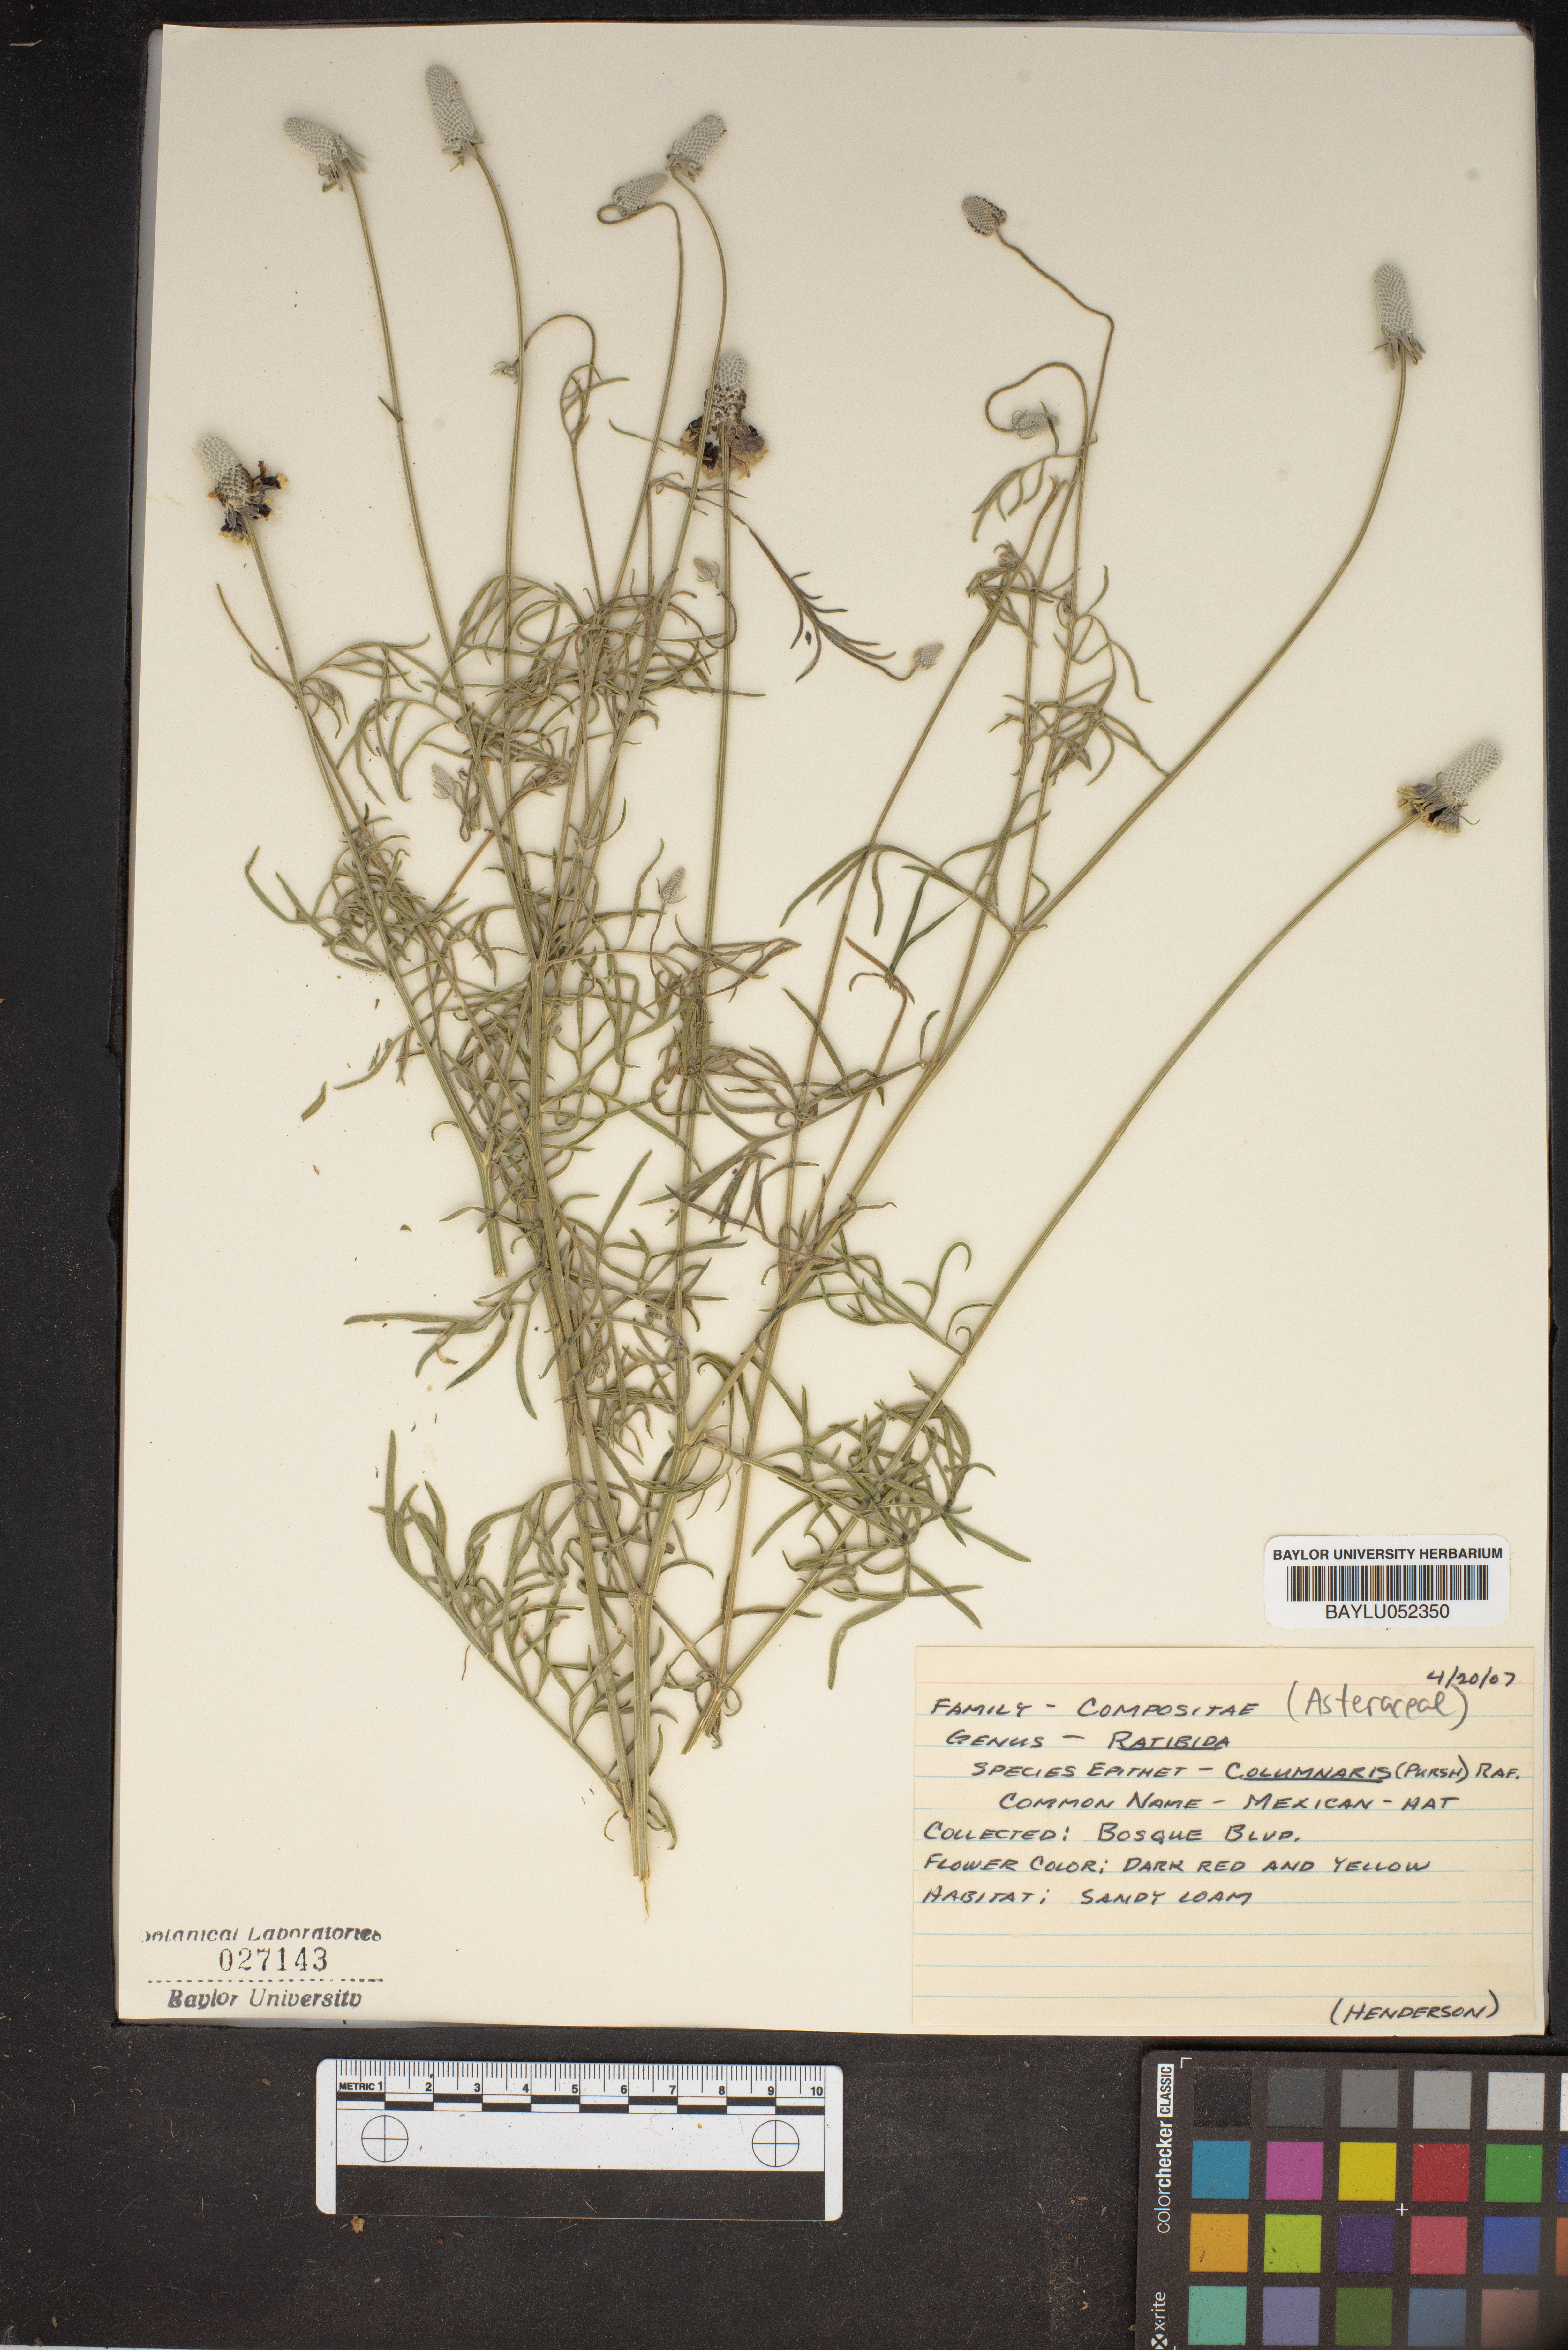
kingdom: Plantae
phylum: Tracheophyta
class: Magnoliopsida
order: Asterales
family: Asteraceae
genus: Ratibida
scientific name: Ratibida columnifera
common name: Prairie coneflower
